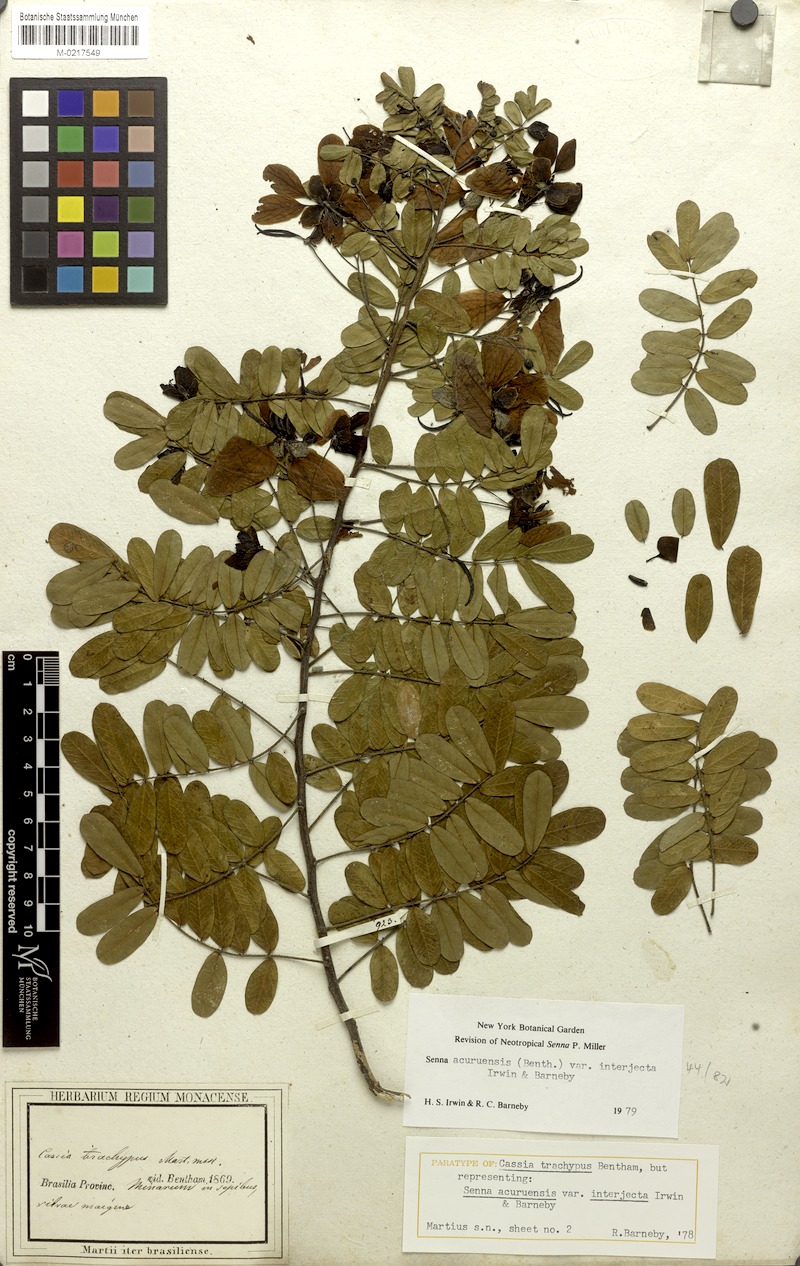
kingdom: Plantae
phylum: Tracheophyta
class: Magnoliopsida
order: Fabales
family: Fabaceae
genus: Senna
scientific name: Senna acuruensis
